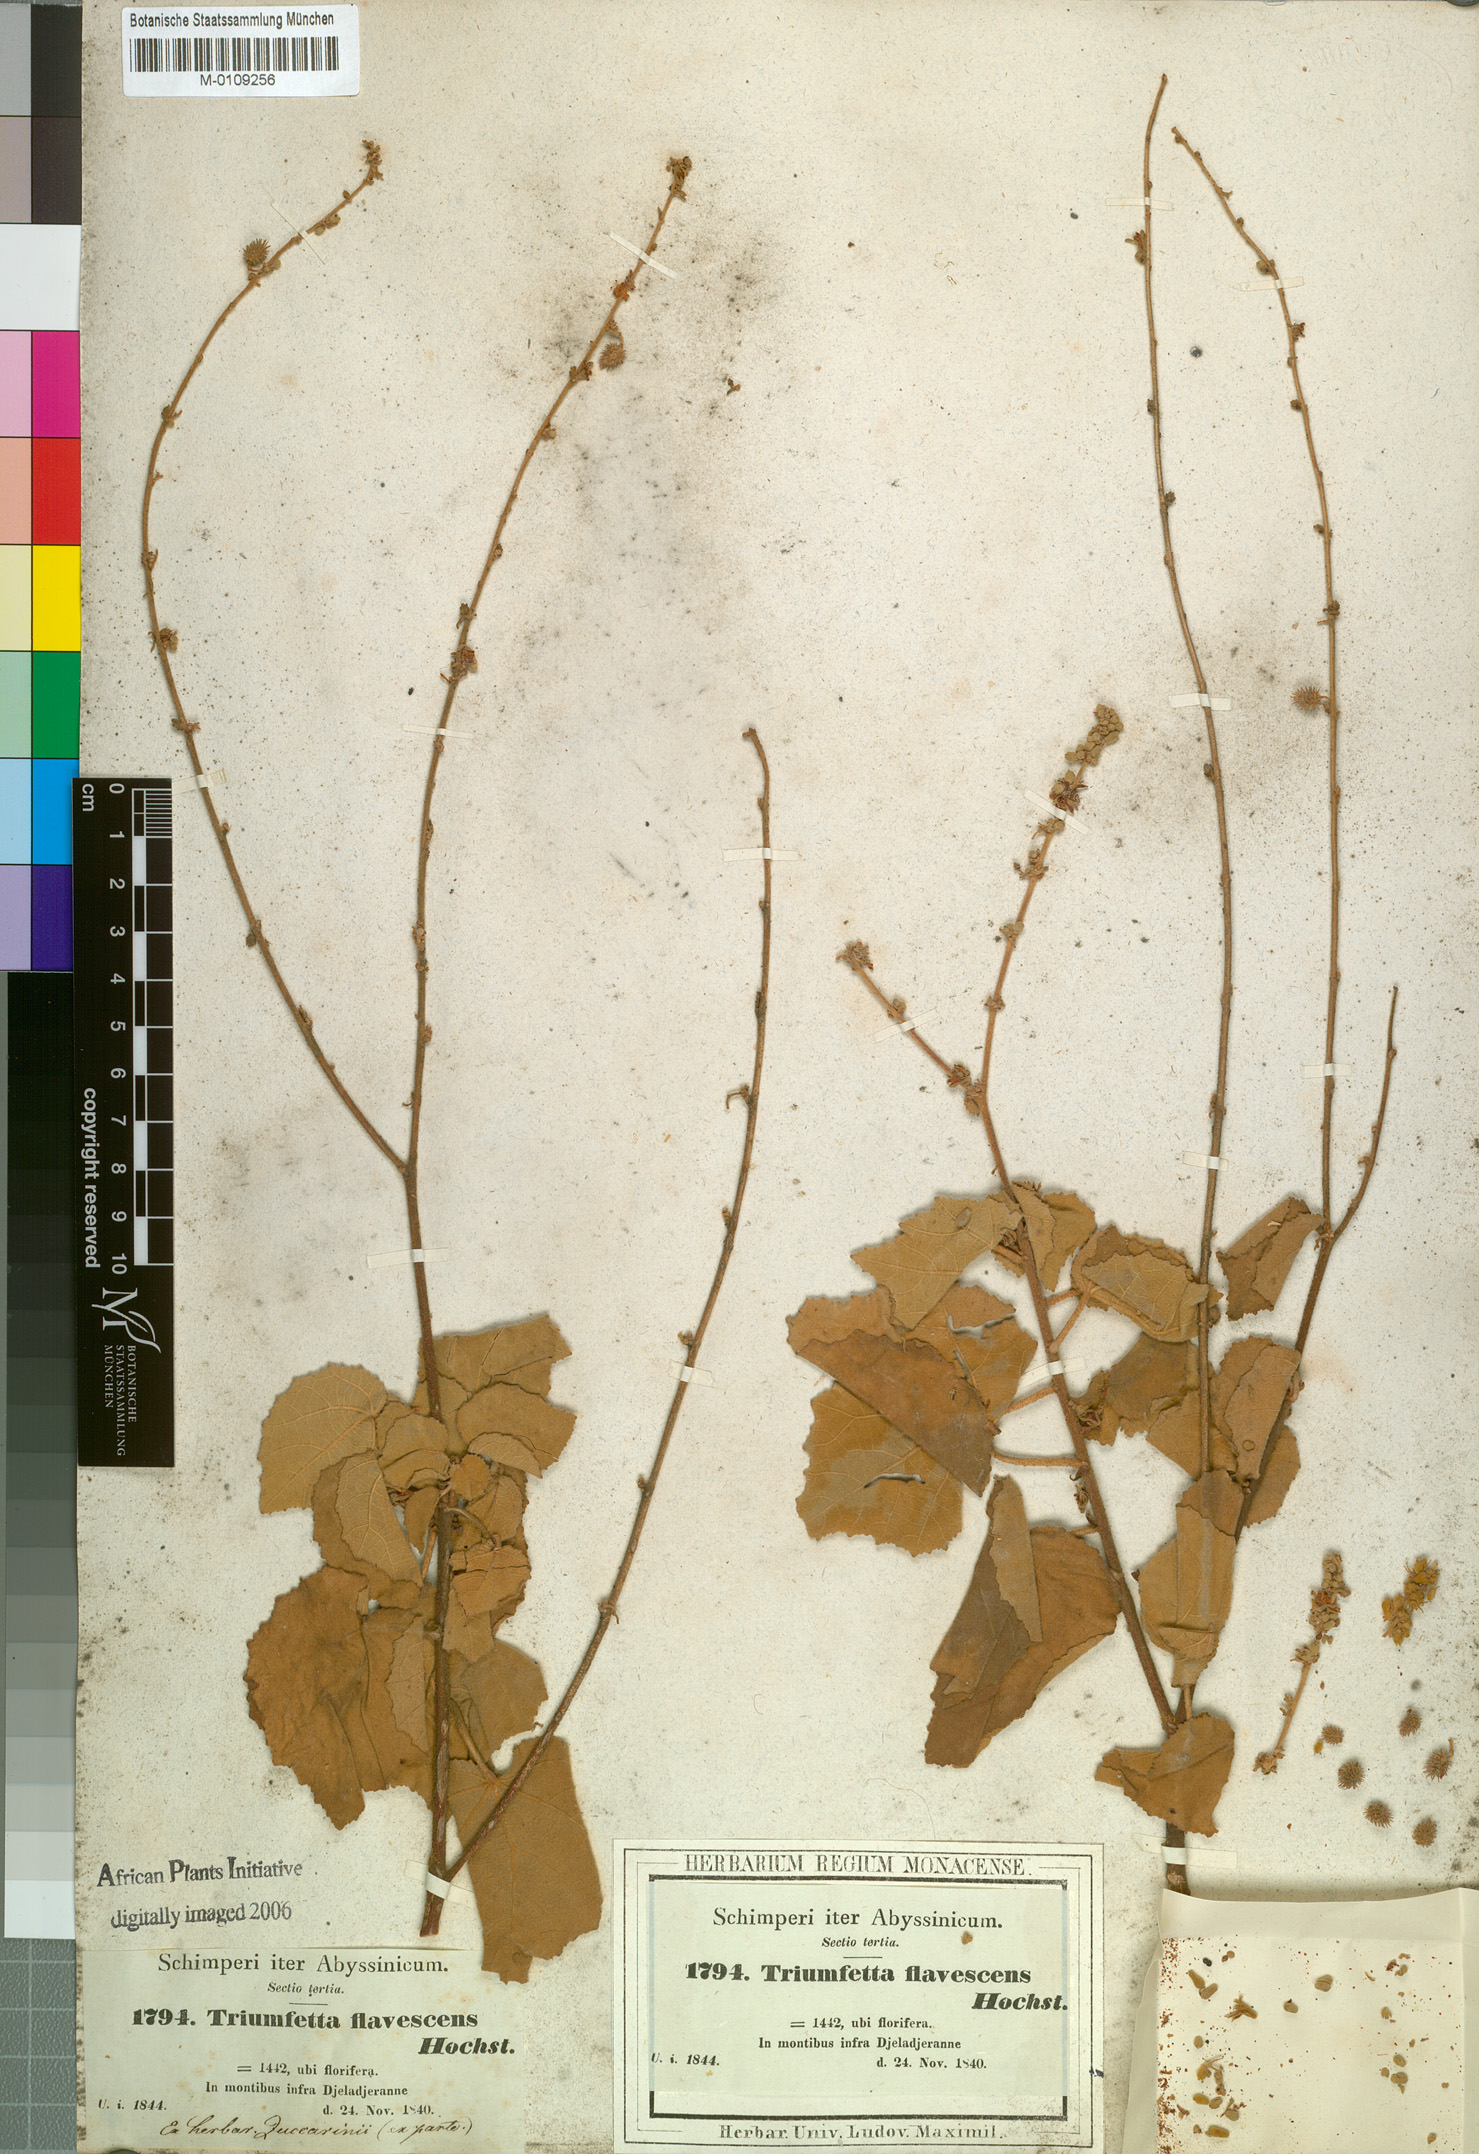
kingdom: Plantae
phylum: Tracheophyta
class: Magnoliopsida
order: Malvales
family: Malvaceae
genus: Triumfetta
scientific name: Triumfetta flavescens
